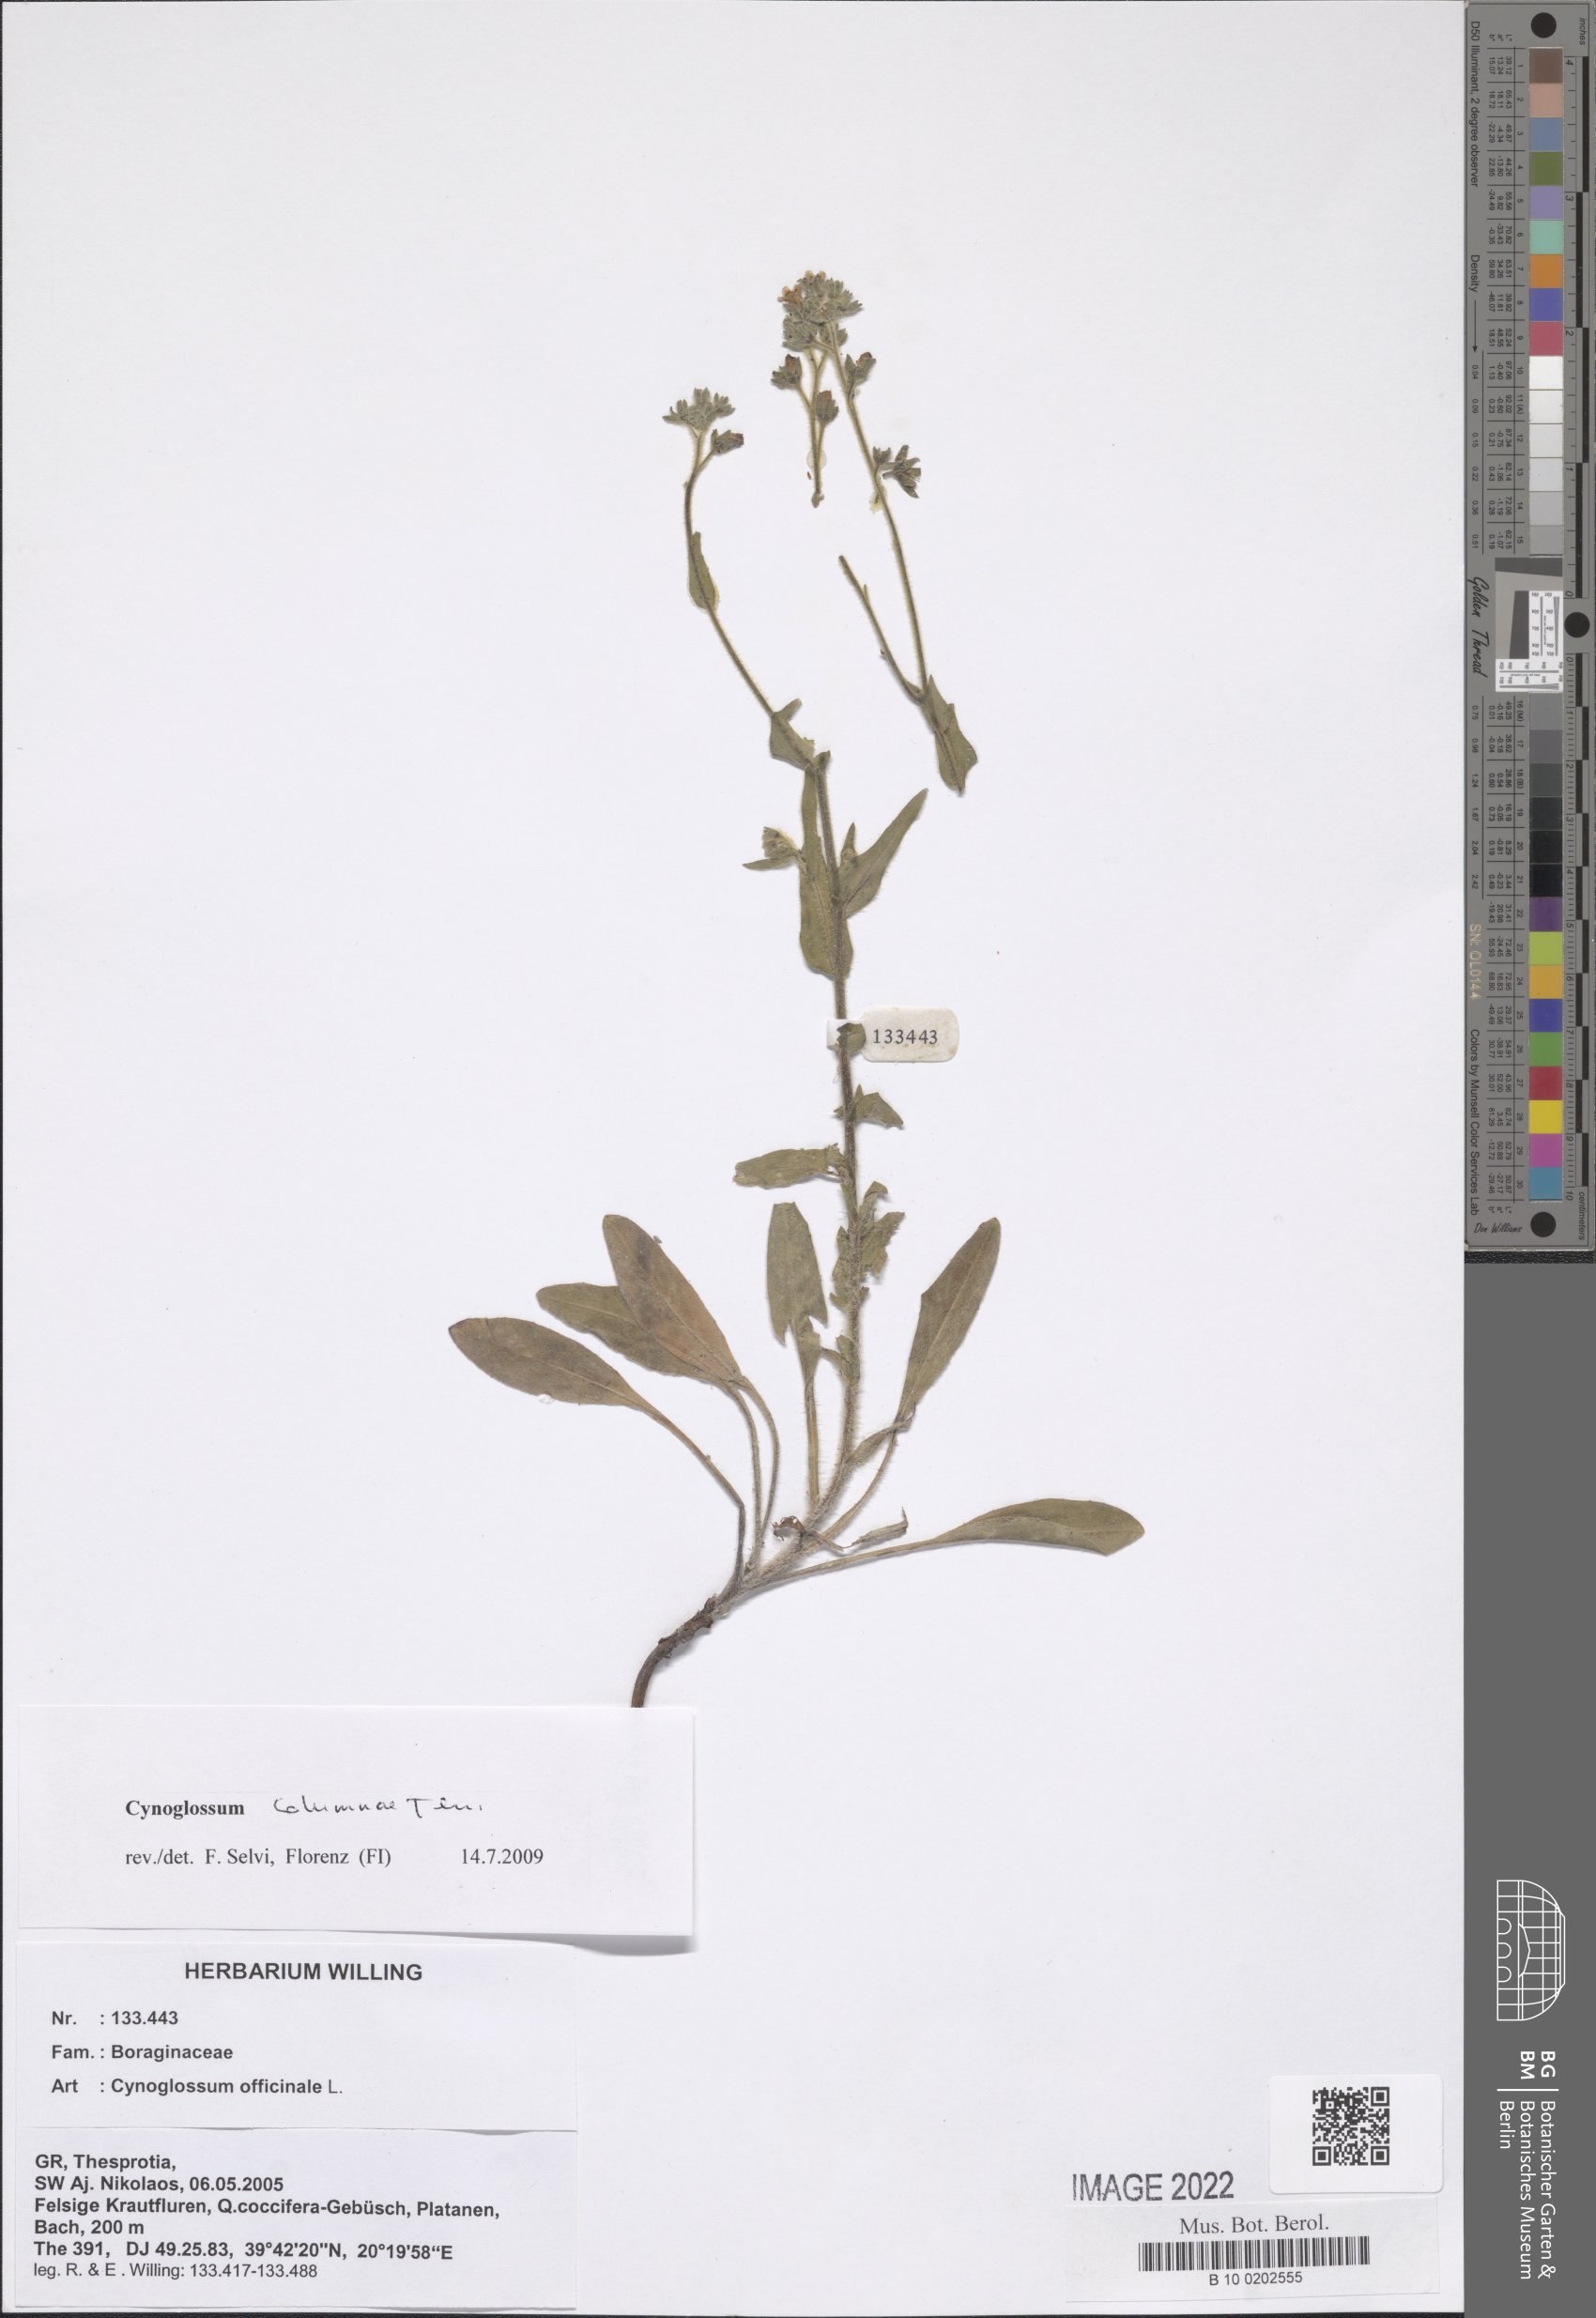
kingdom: Plantae
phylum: Tracheophyta
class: Magnoliopsida
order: Boraginales
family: Boraginaceae
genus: Rindera
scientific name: Rindera columnae
